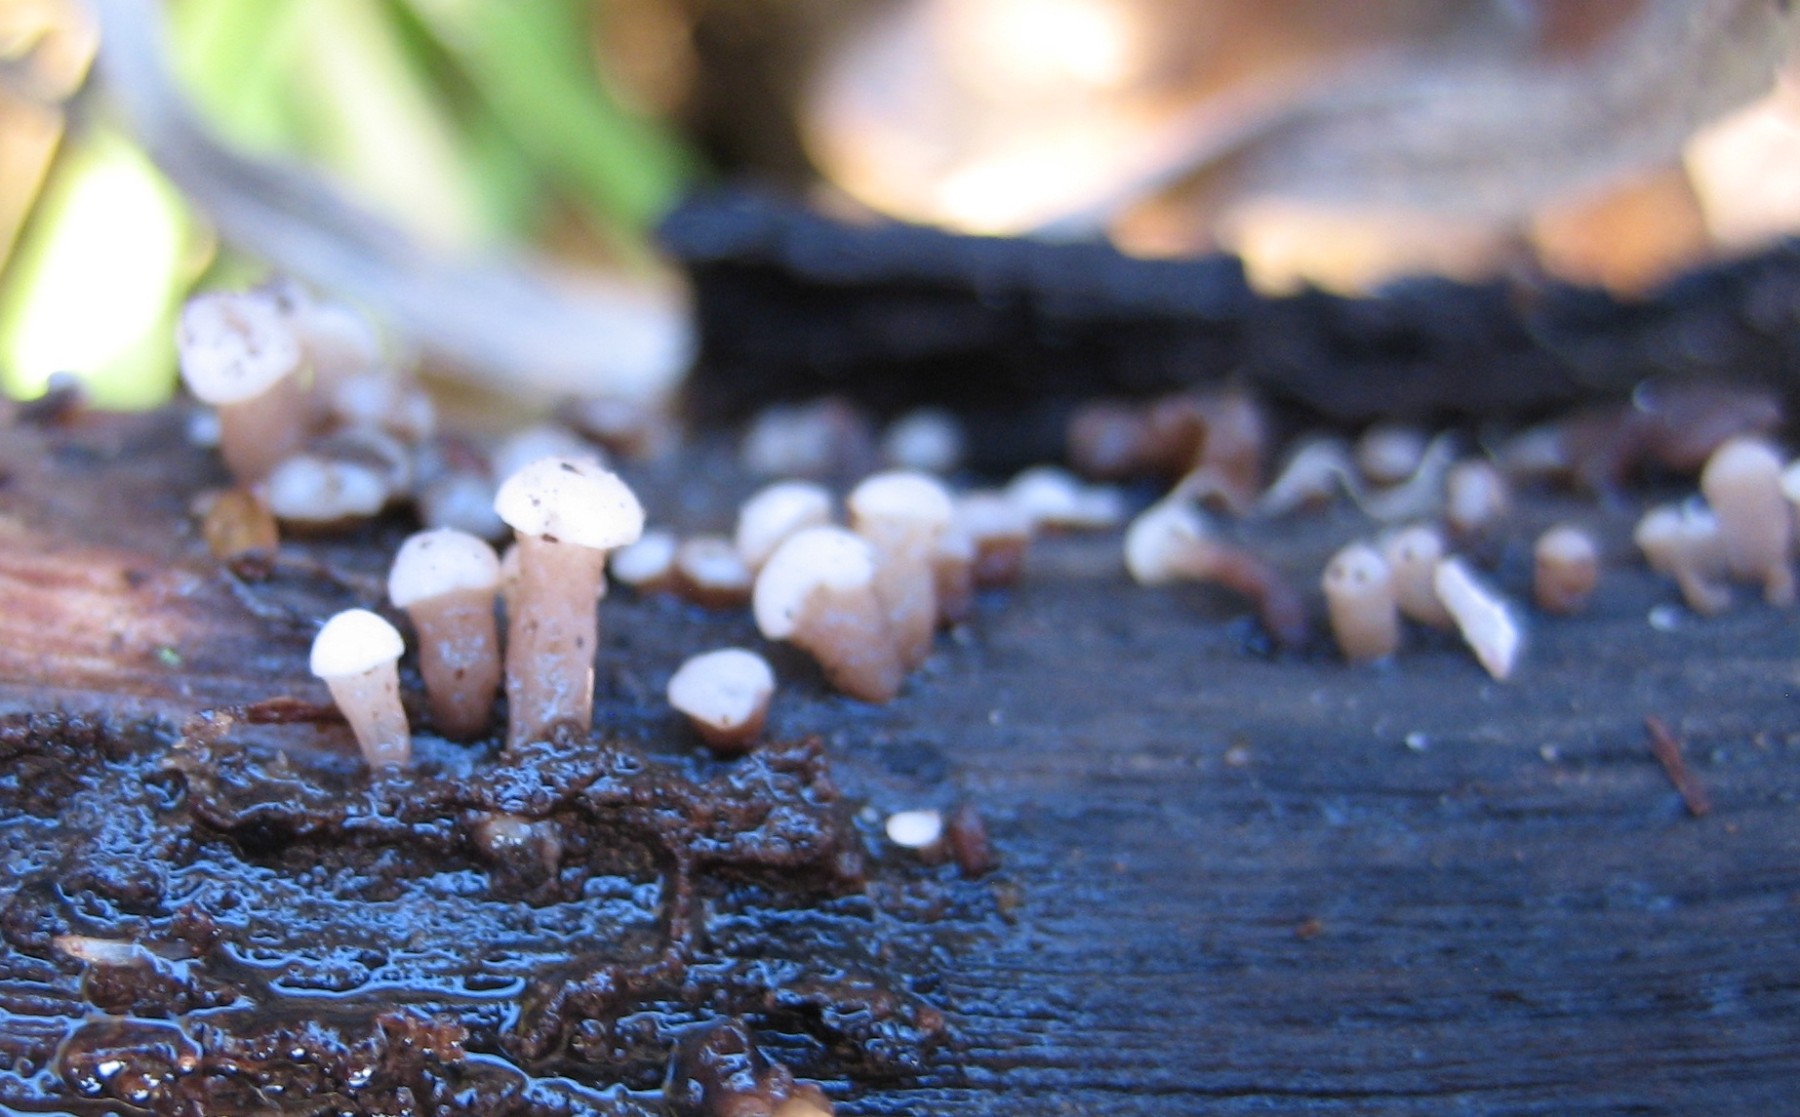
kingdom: Fungi
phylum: Ascomycota
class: Leotiomycetes
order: Helotiales
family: Gelatinodiscaceae
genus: Ascocoryne
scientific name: Ascocoryne albida
